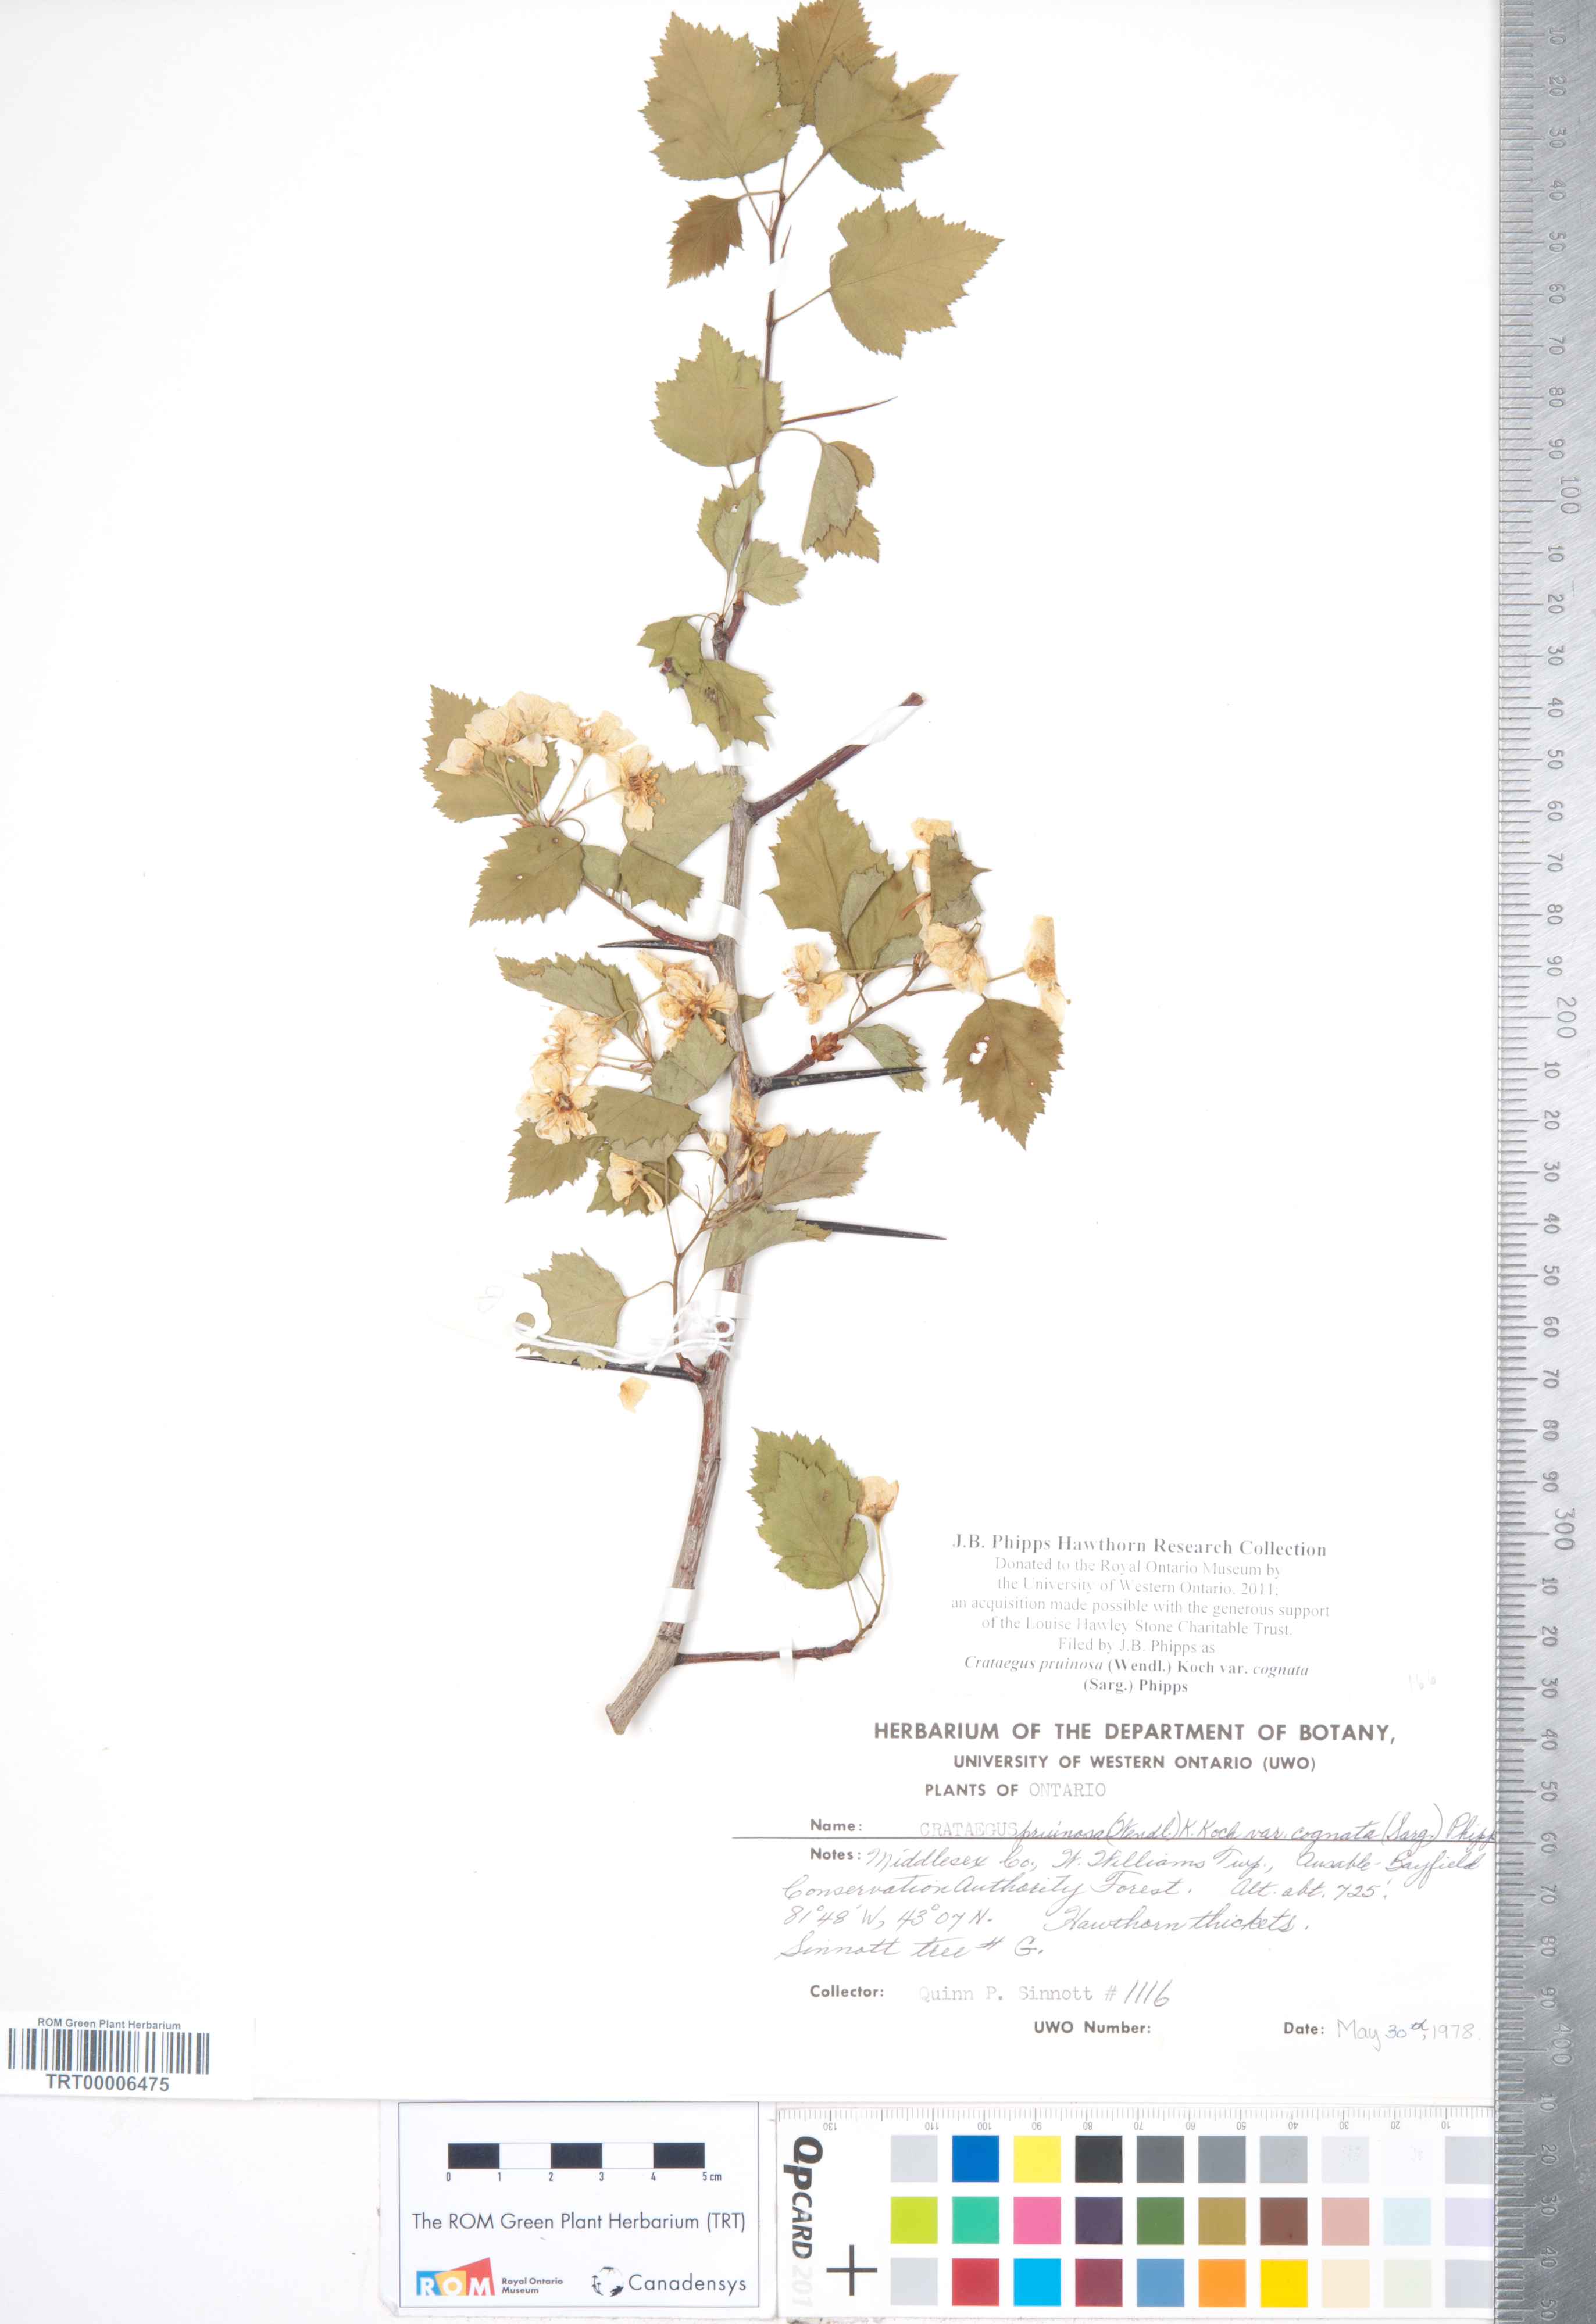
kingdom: Plantae
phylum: Tracheophyta
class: Magnoliopsida
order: Rosales
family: Rosaceae
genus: Crataegus
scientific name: Crataegus
